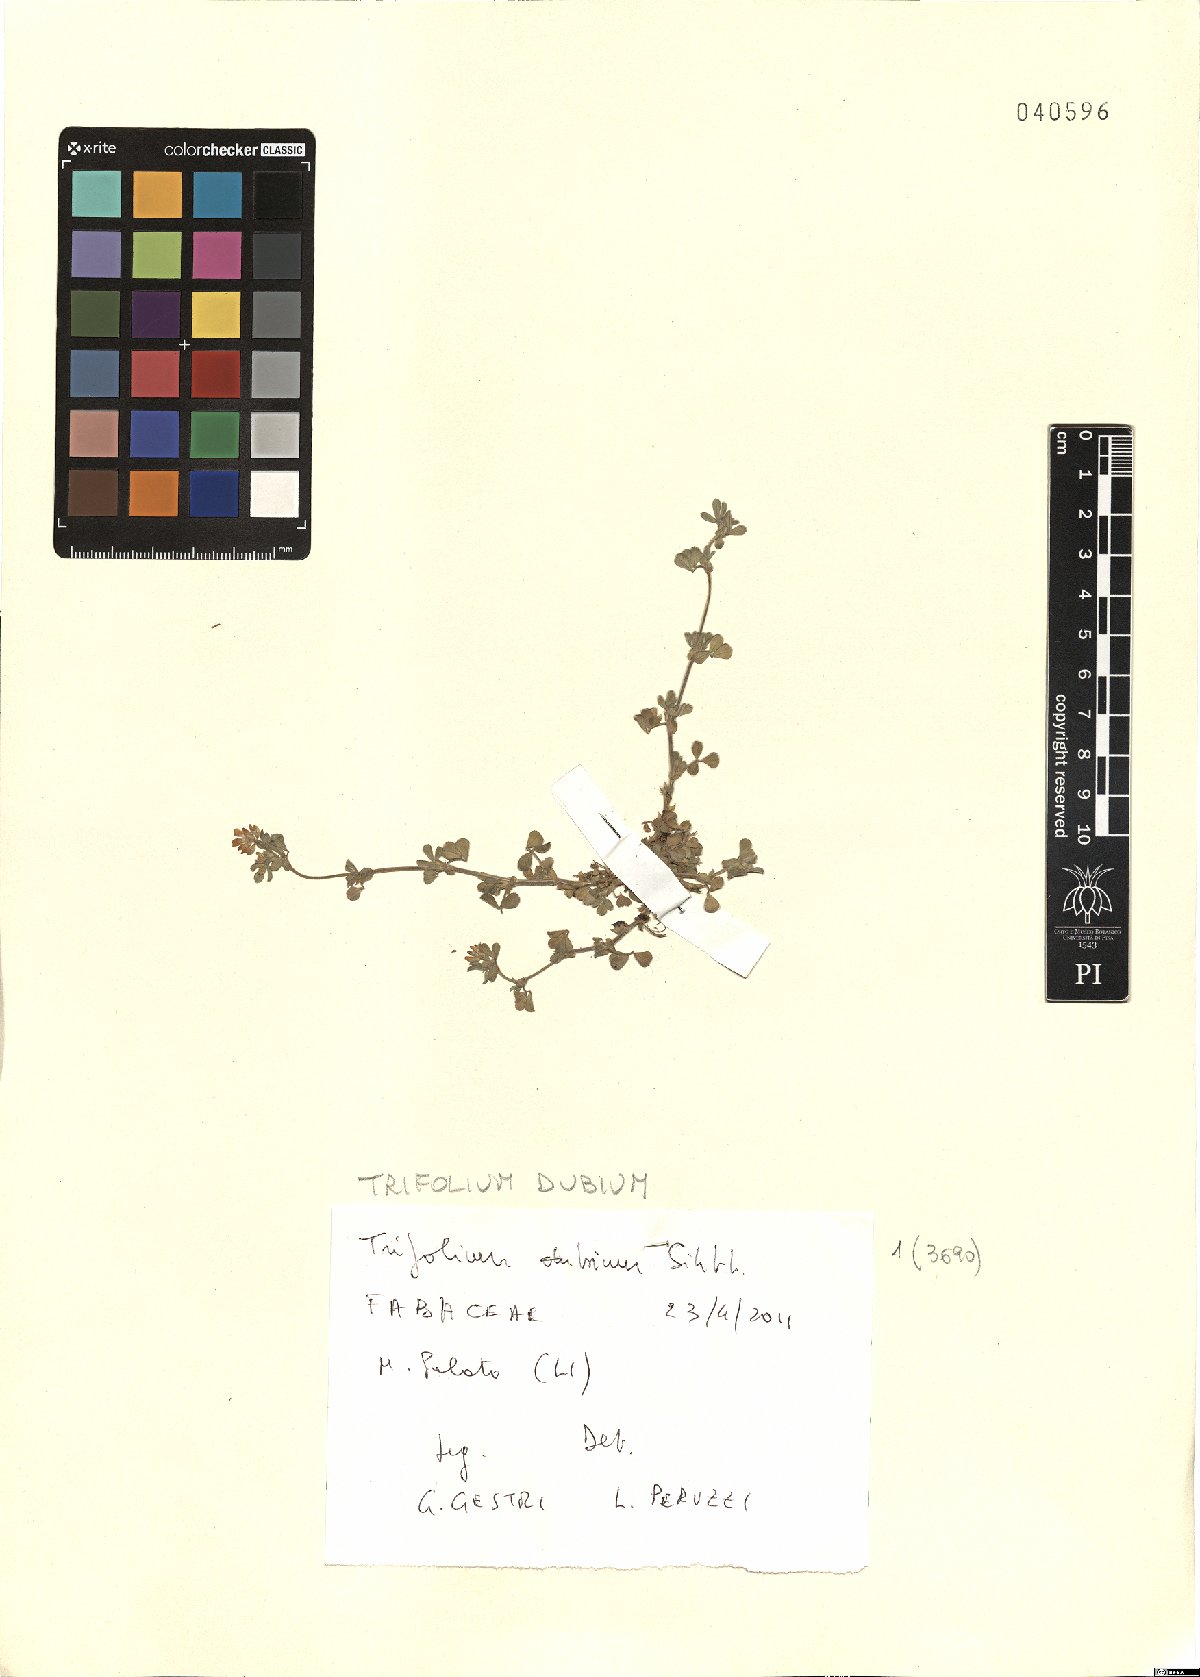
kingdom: Plantae
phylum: Tracheophyta
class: Magnoliopsida
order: Fabales
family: Fabaceae
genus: Trifolium
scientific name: Trifolium dubium
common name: Suckling clover
